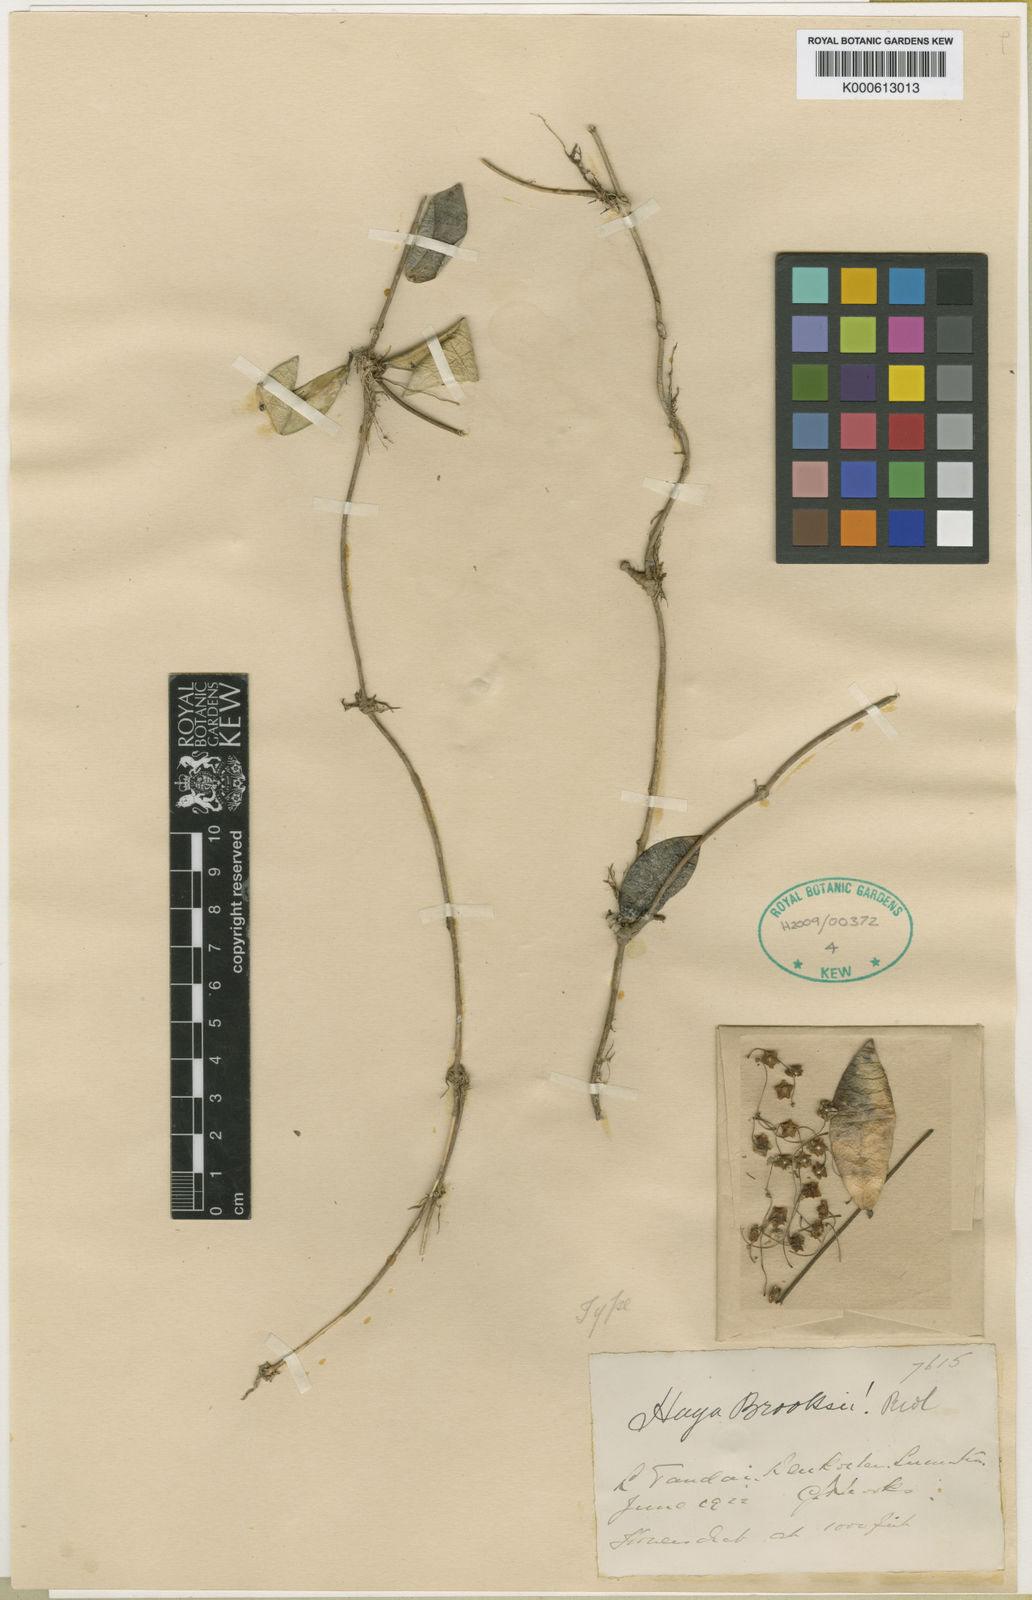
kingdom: Plantae
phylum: Tracheophyta
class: Magnoliopsida
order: Gentianales
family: Apocynaceae
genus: Hoya
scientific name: Hoya brooksii
